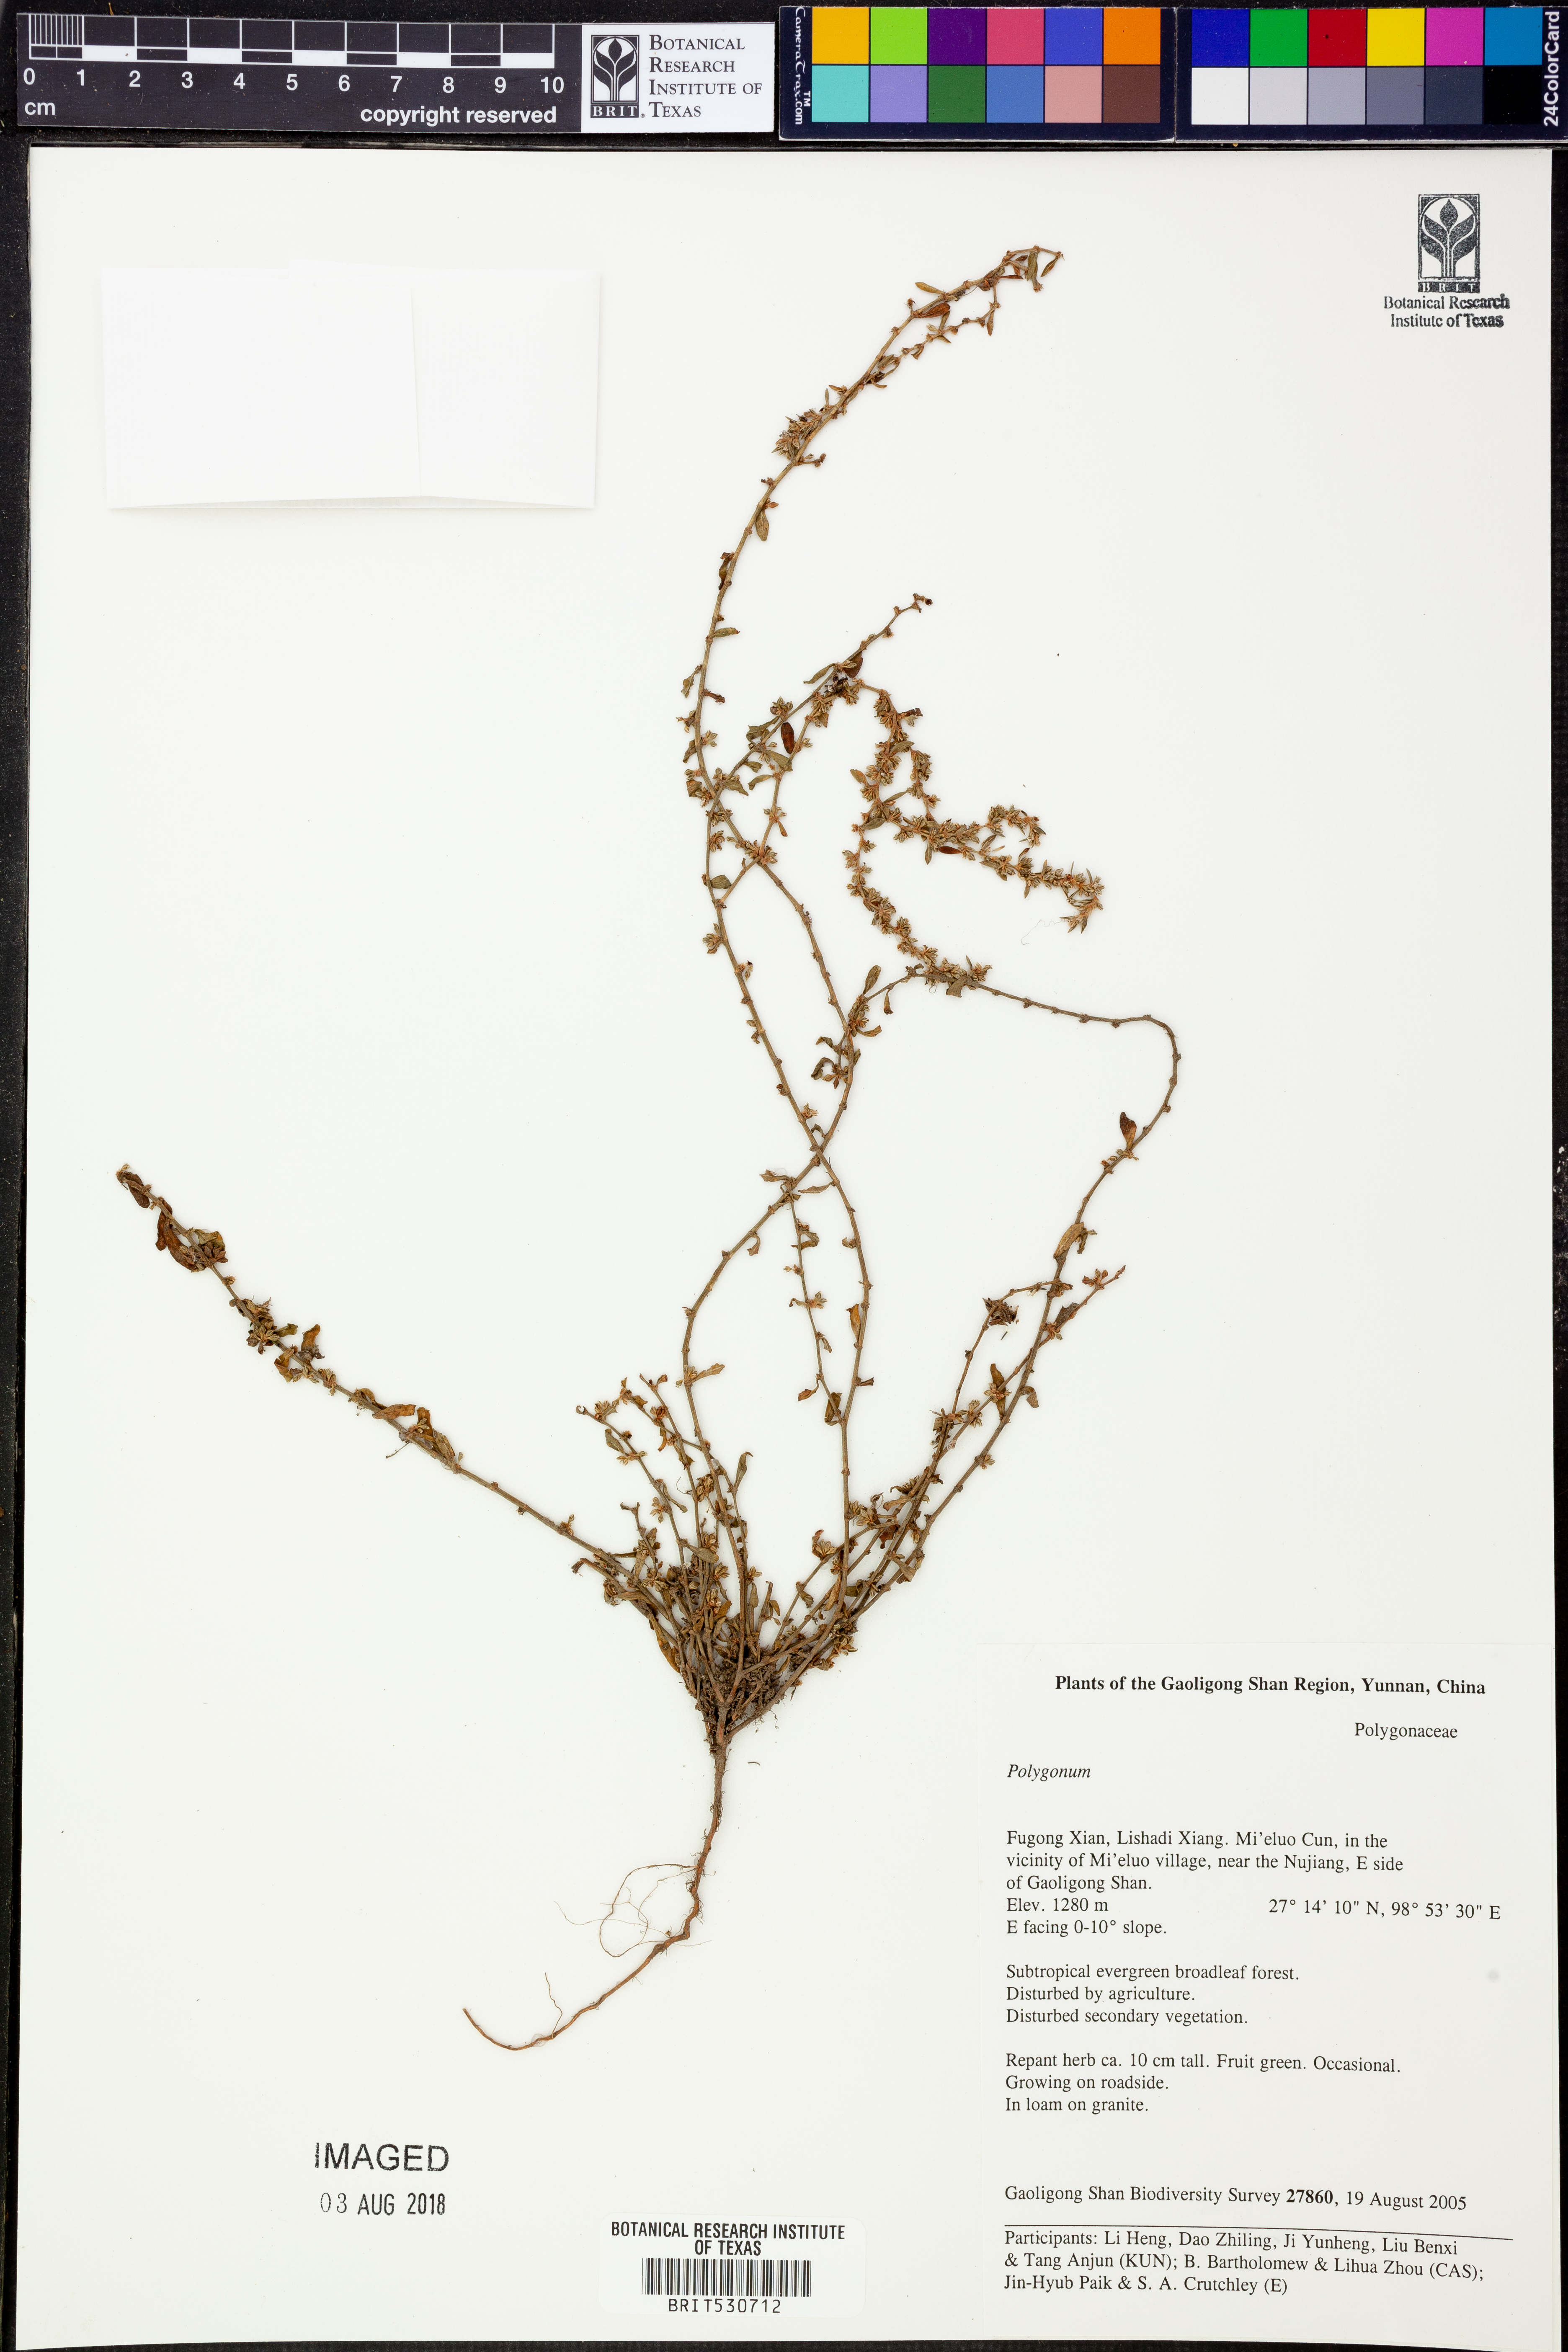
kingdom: Plantae
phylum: Tracheophyta
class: Magnoliopsida
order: Caryophyllales
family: Polygonaceae
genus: Polygonum
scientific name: Polygonum
